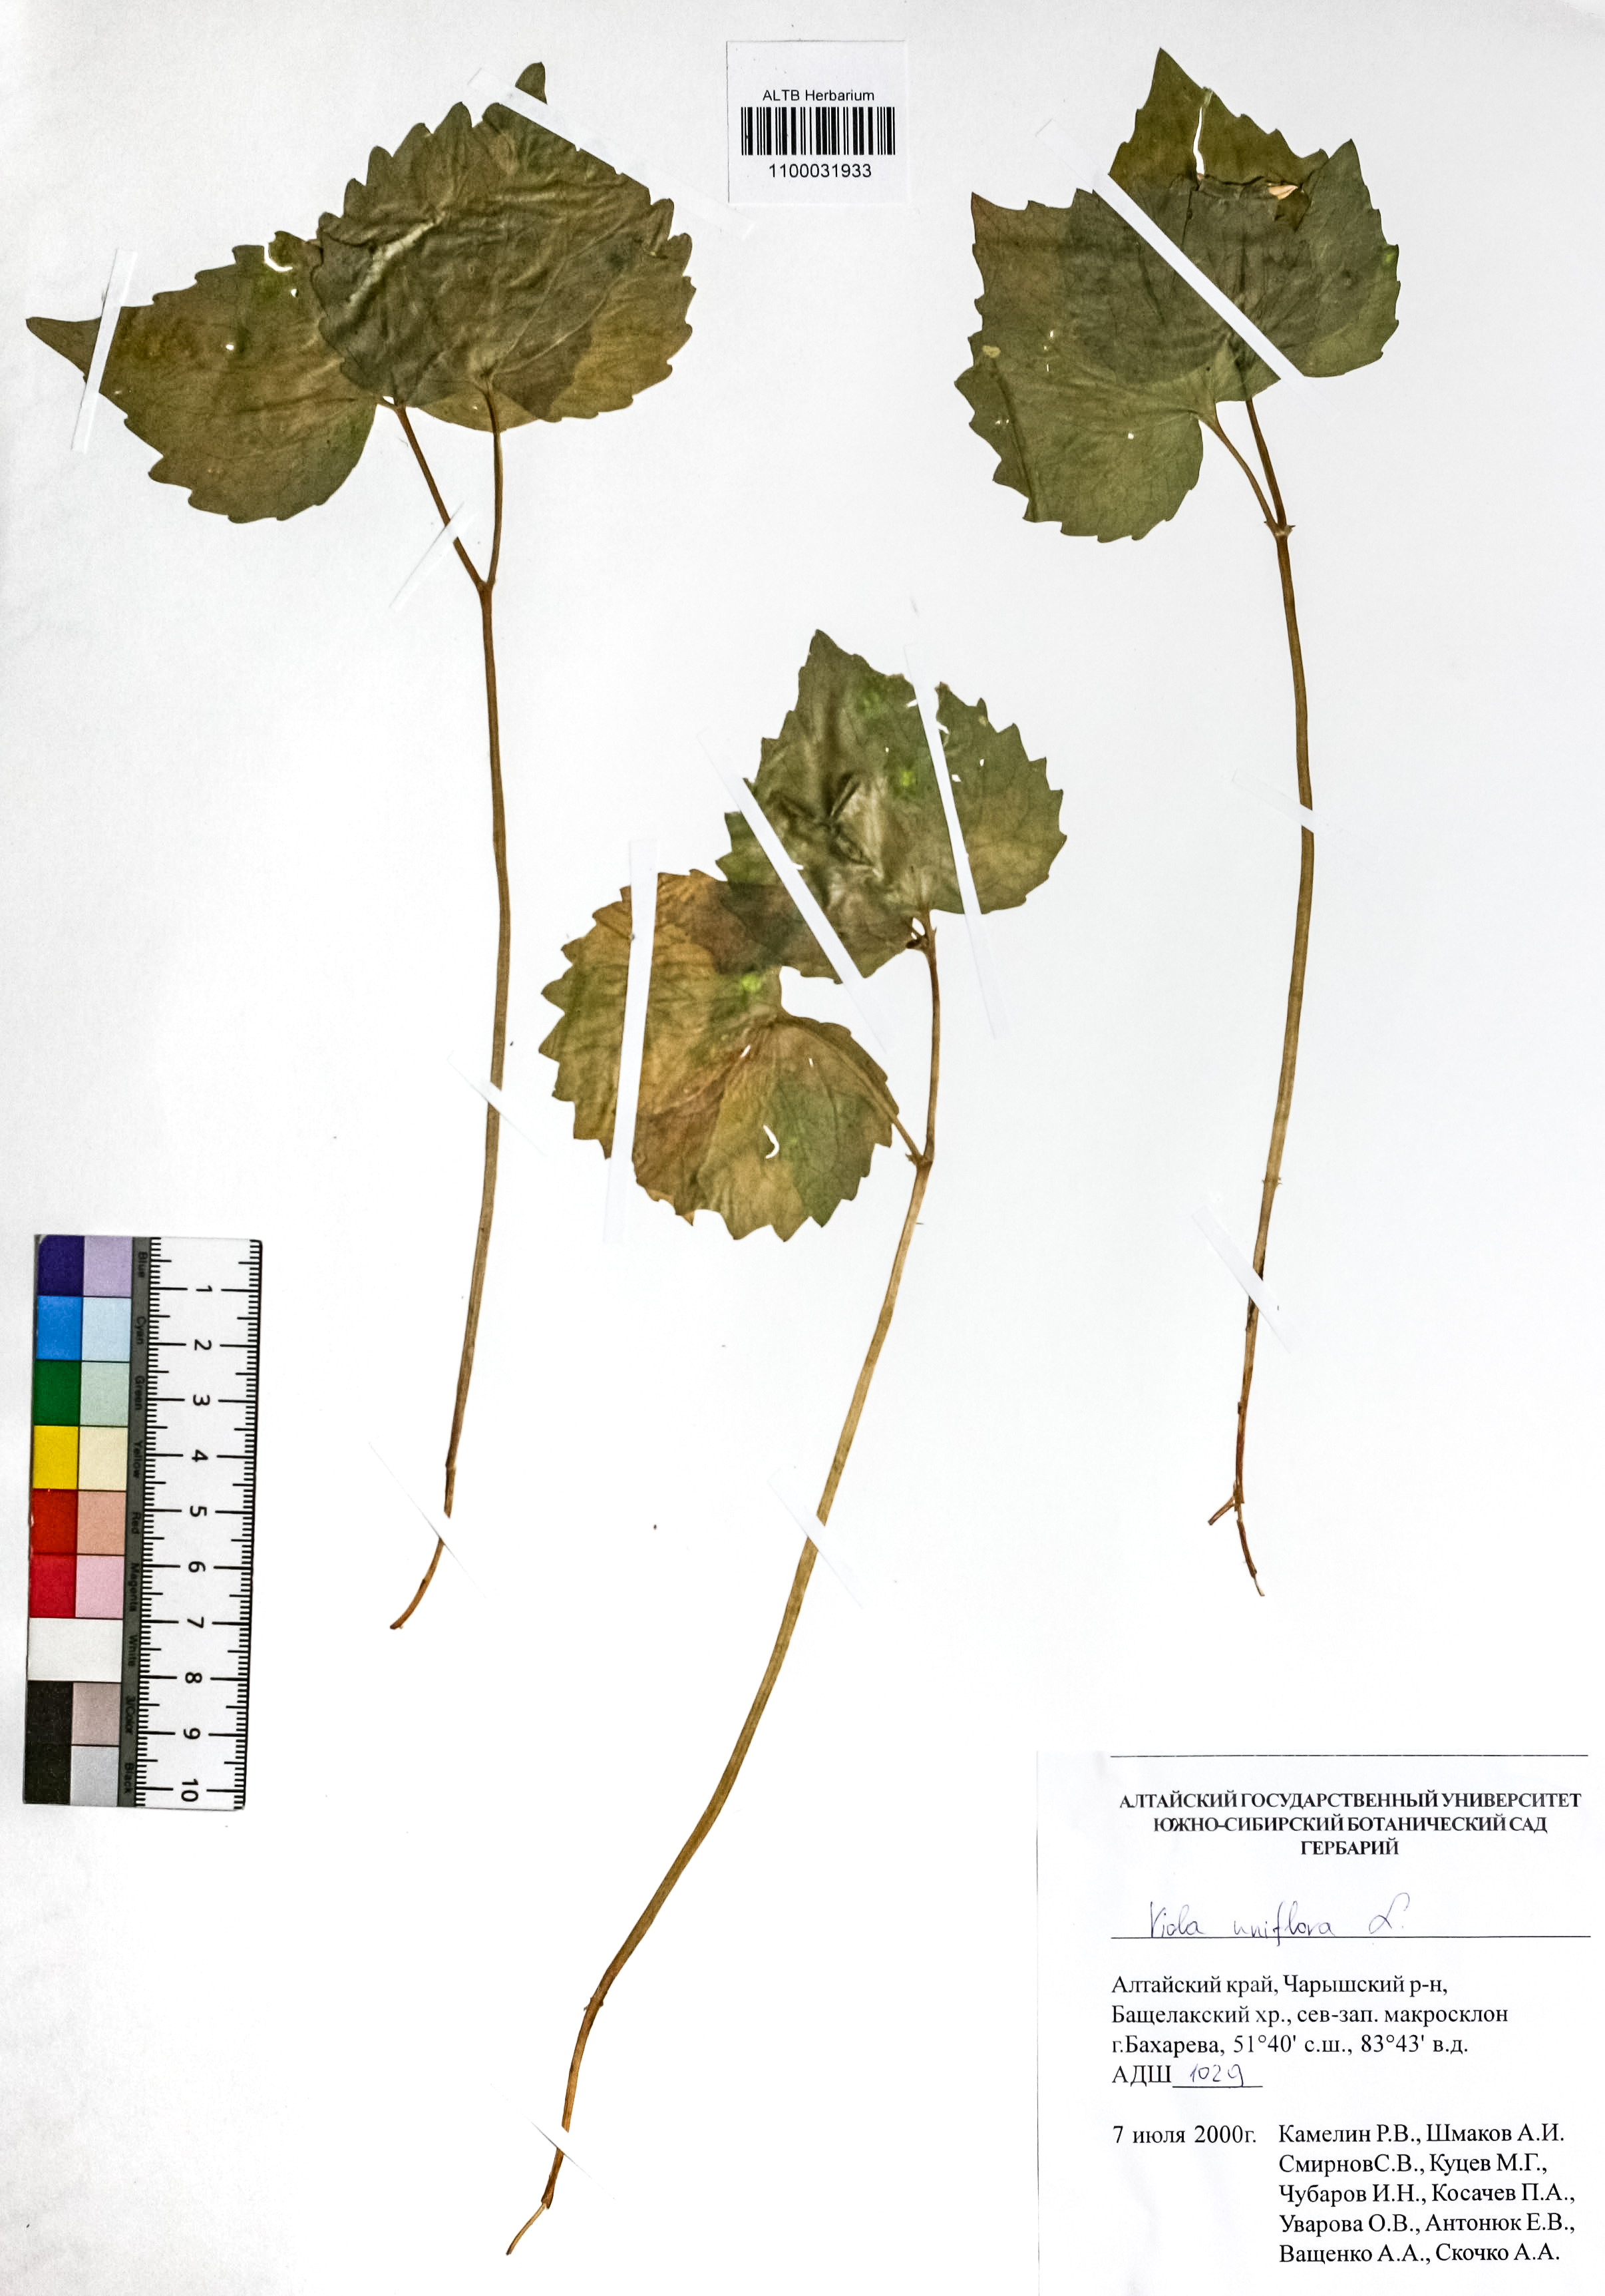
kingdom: Plantae
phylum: Tracheophyta
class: Magnoliopsida
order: Malpighiales
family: Violaceae
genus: Viola
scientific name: Viola uniflora
